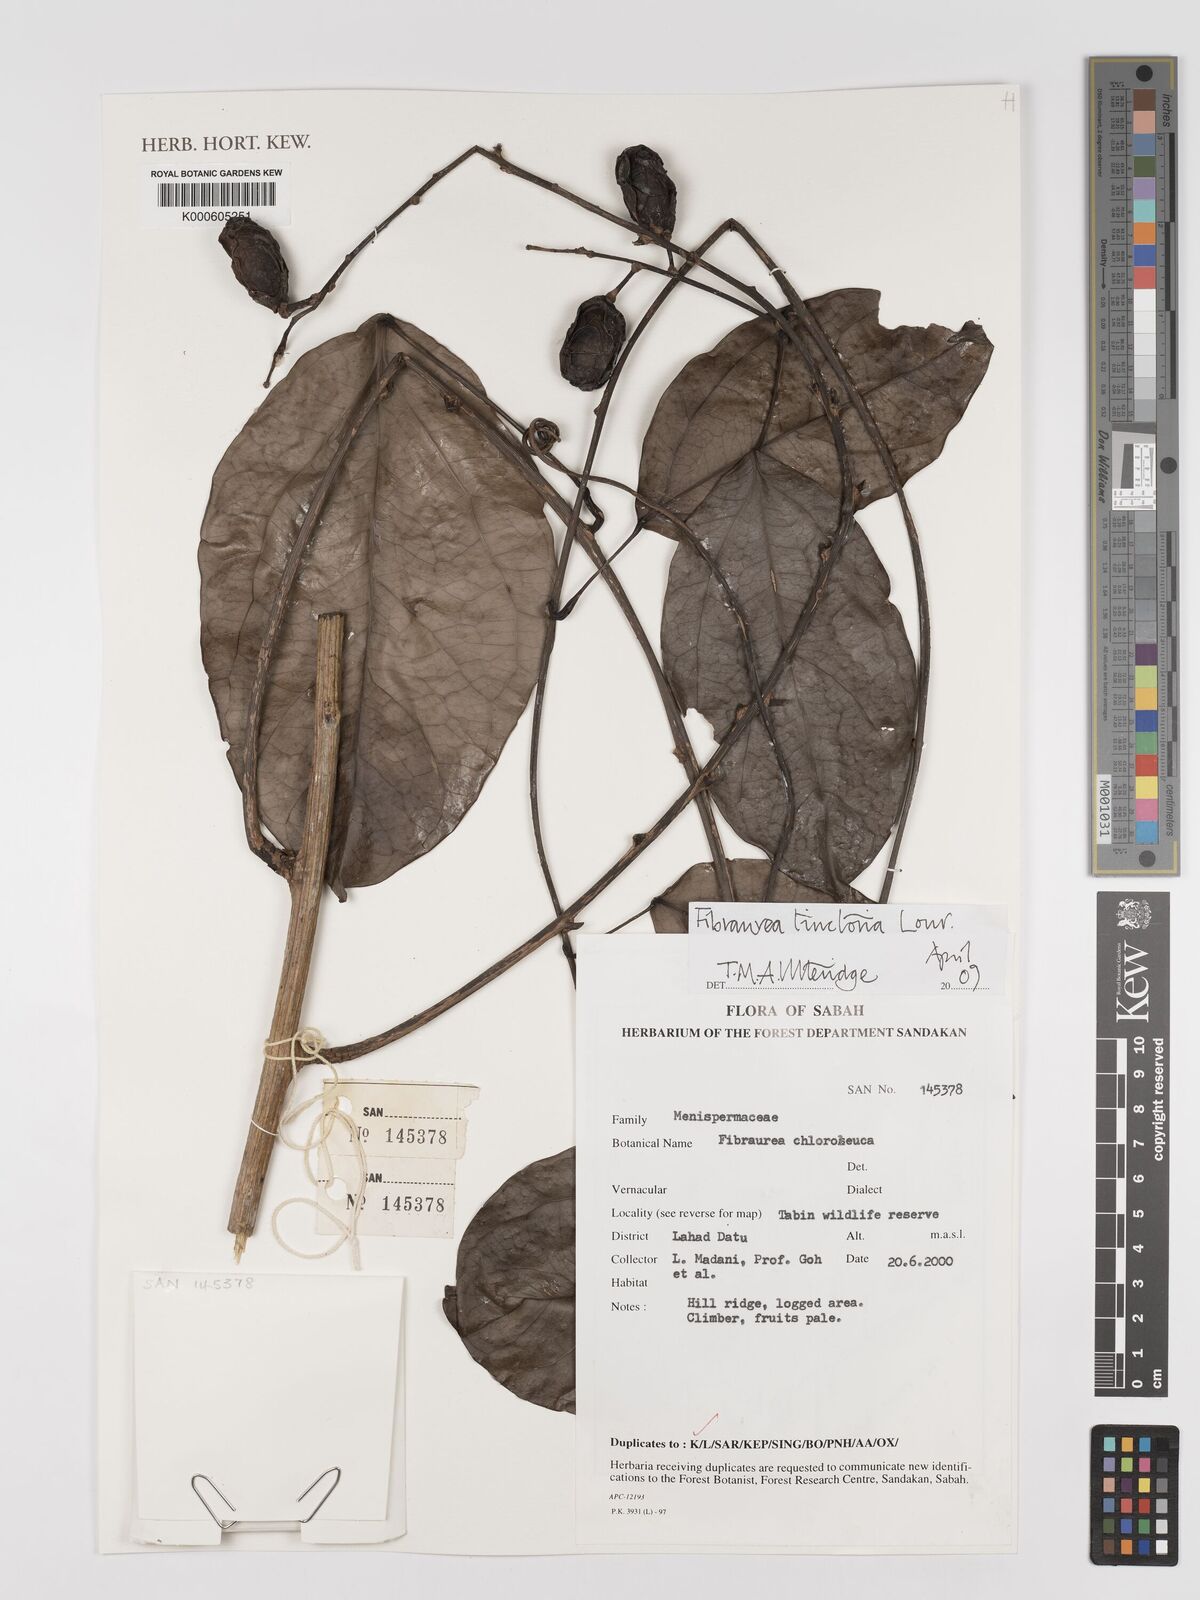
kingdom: Plantae
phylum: Tracheophyta
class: Magnoliopsida
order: Ranunculales
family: Menispermaceae
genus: Fibraurea
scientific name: Fibraurea tinctoria
